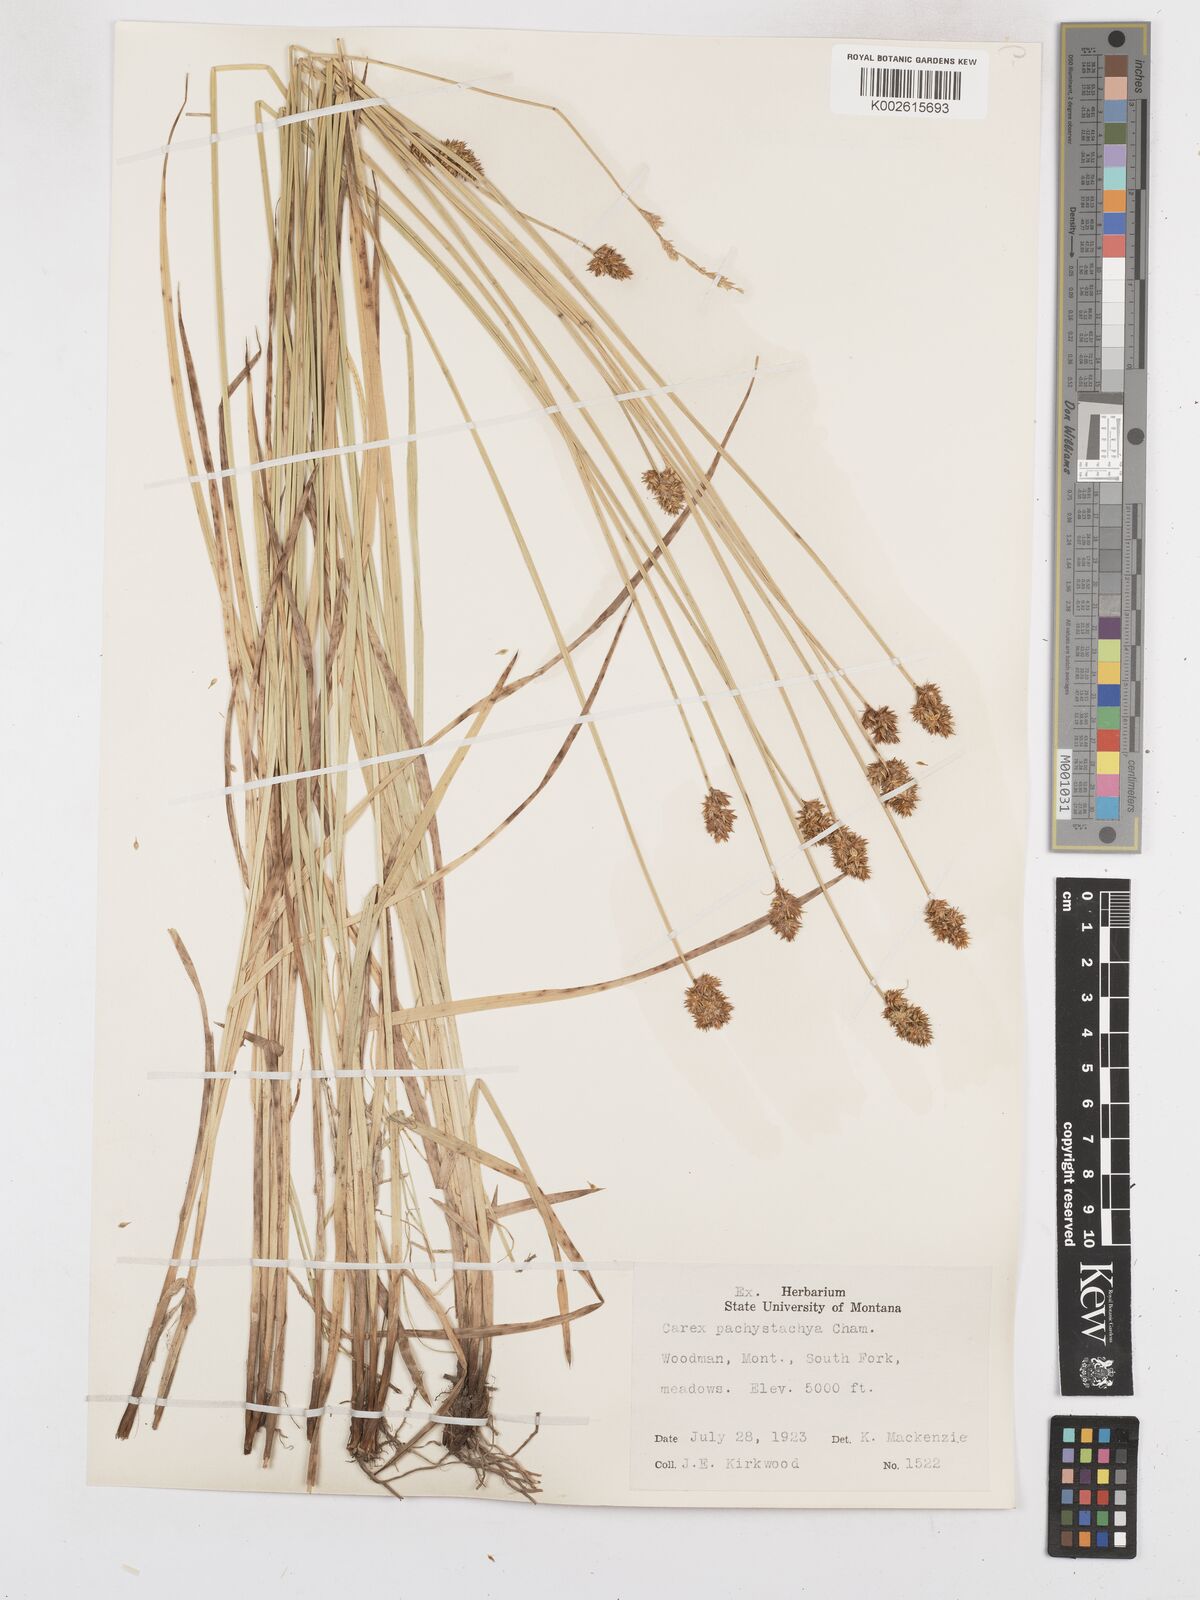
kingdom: Plantae
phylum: Tracheophyta
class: Liliopsida
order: Poales
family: Cyperaceae
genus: Carex
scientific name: Carex pachystachya
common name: Chamisso's sedge
